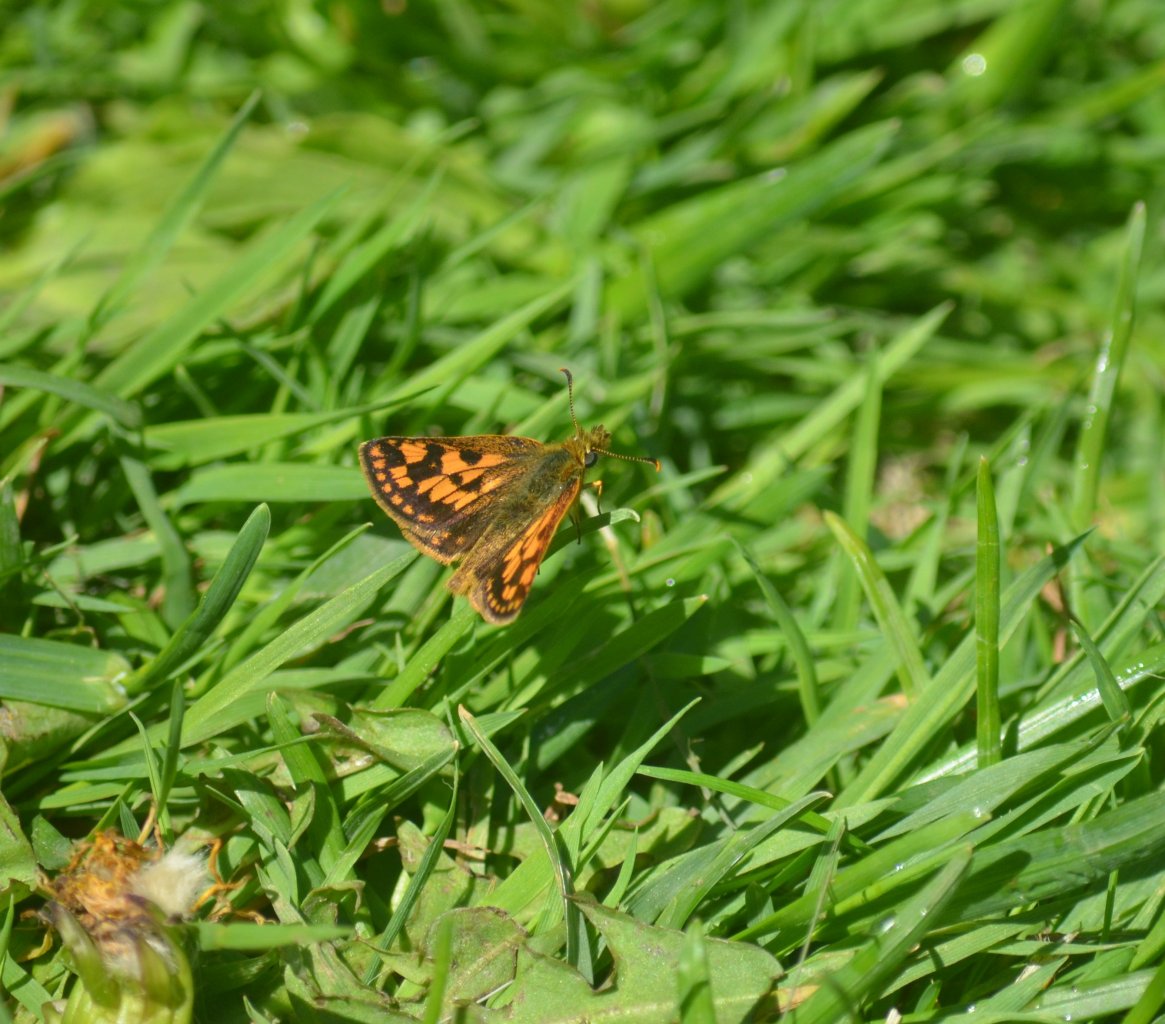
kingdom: Animalia
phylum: Arthropoda
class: Insecta
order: Lepidoptera
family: Hesperiidae
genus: Carterocephalus
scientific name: Carterocephalus palaemon
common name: Chequered Skipper
